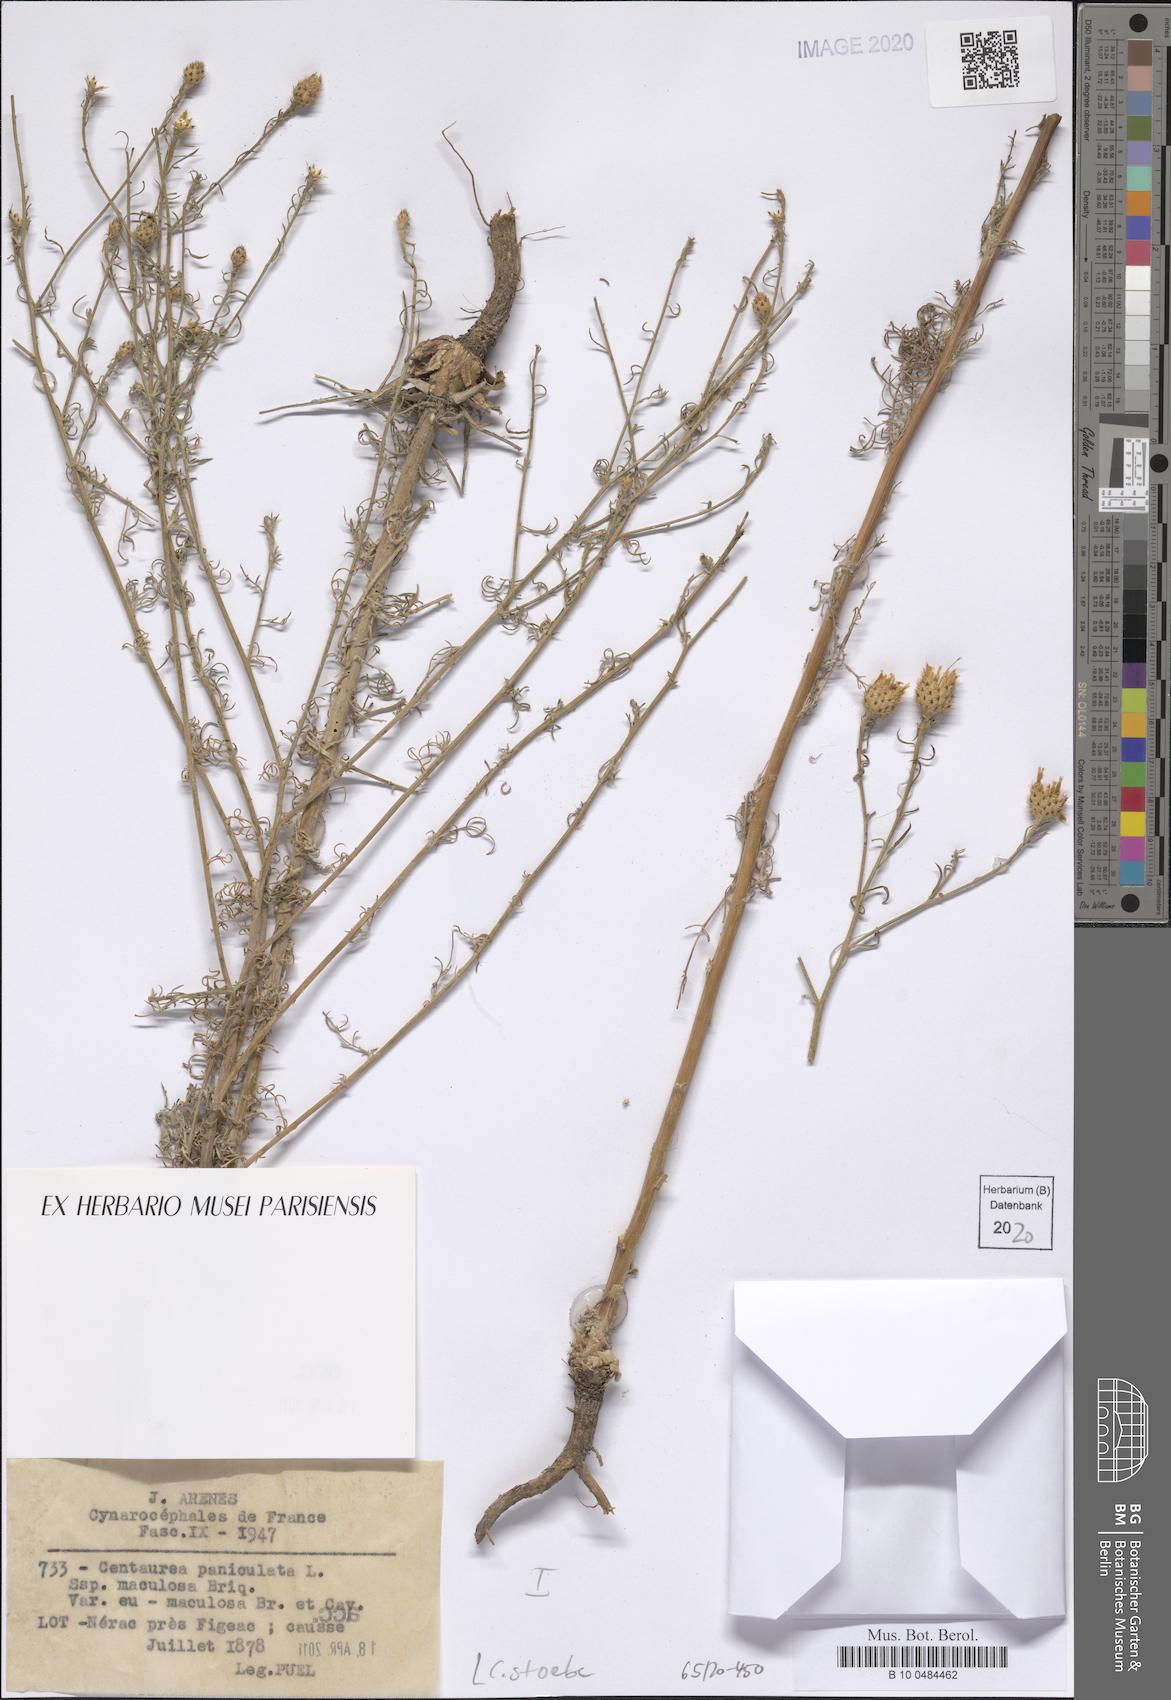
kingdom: Plantae
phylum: Tracheophyta
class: Magnoliopsida
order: Asterales
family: Asteraceae
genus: Centaurea
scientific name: Centaurea stoebe
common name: Spotted knapweed
